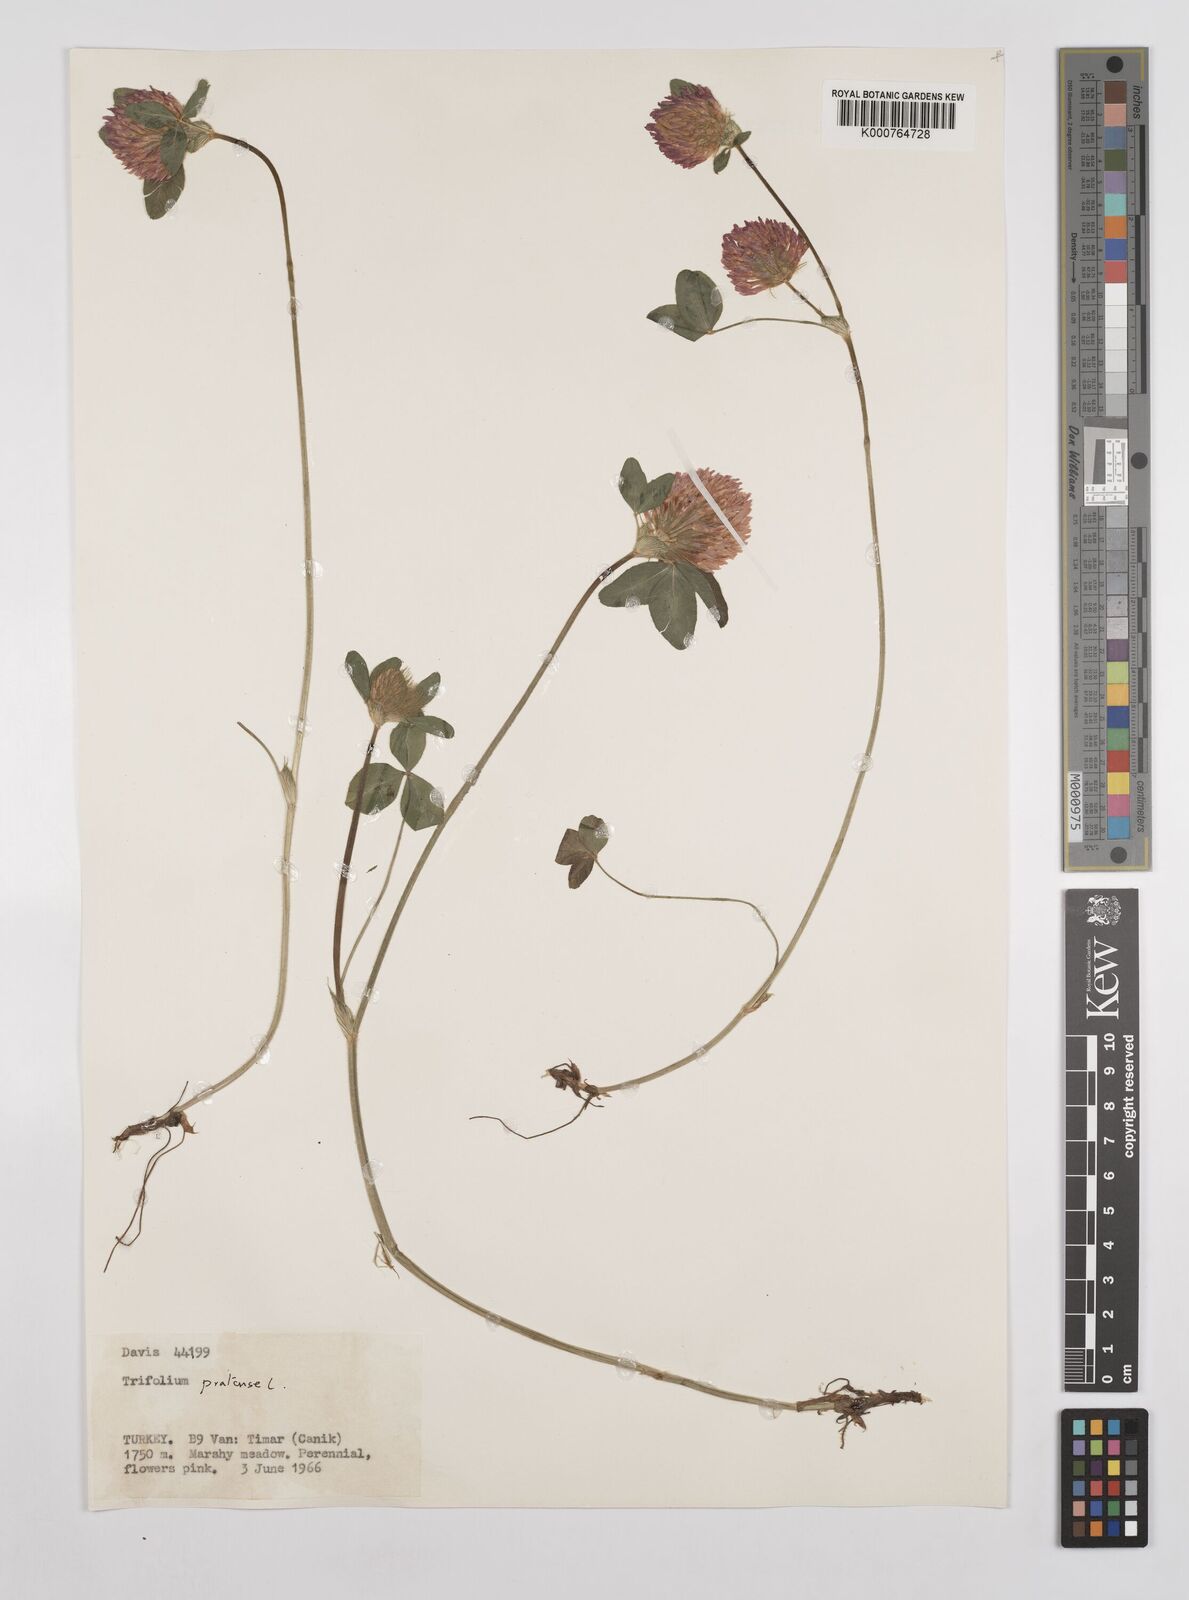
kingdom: Plantae
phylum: Tracheophyta
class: Magnoliopsida
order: Fabales
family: Fabaceae
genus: Trifolium
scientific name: Trifolium pratense
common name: Red clover
